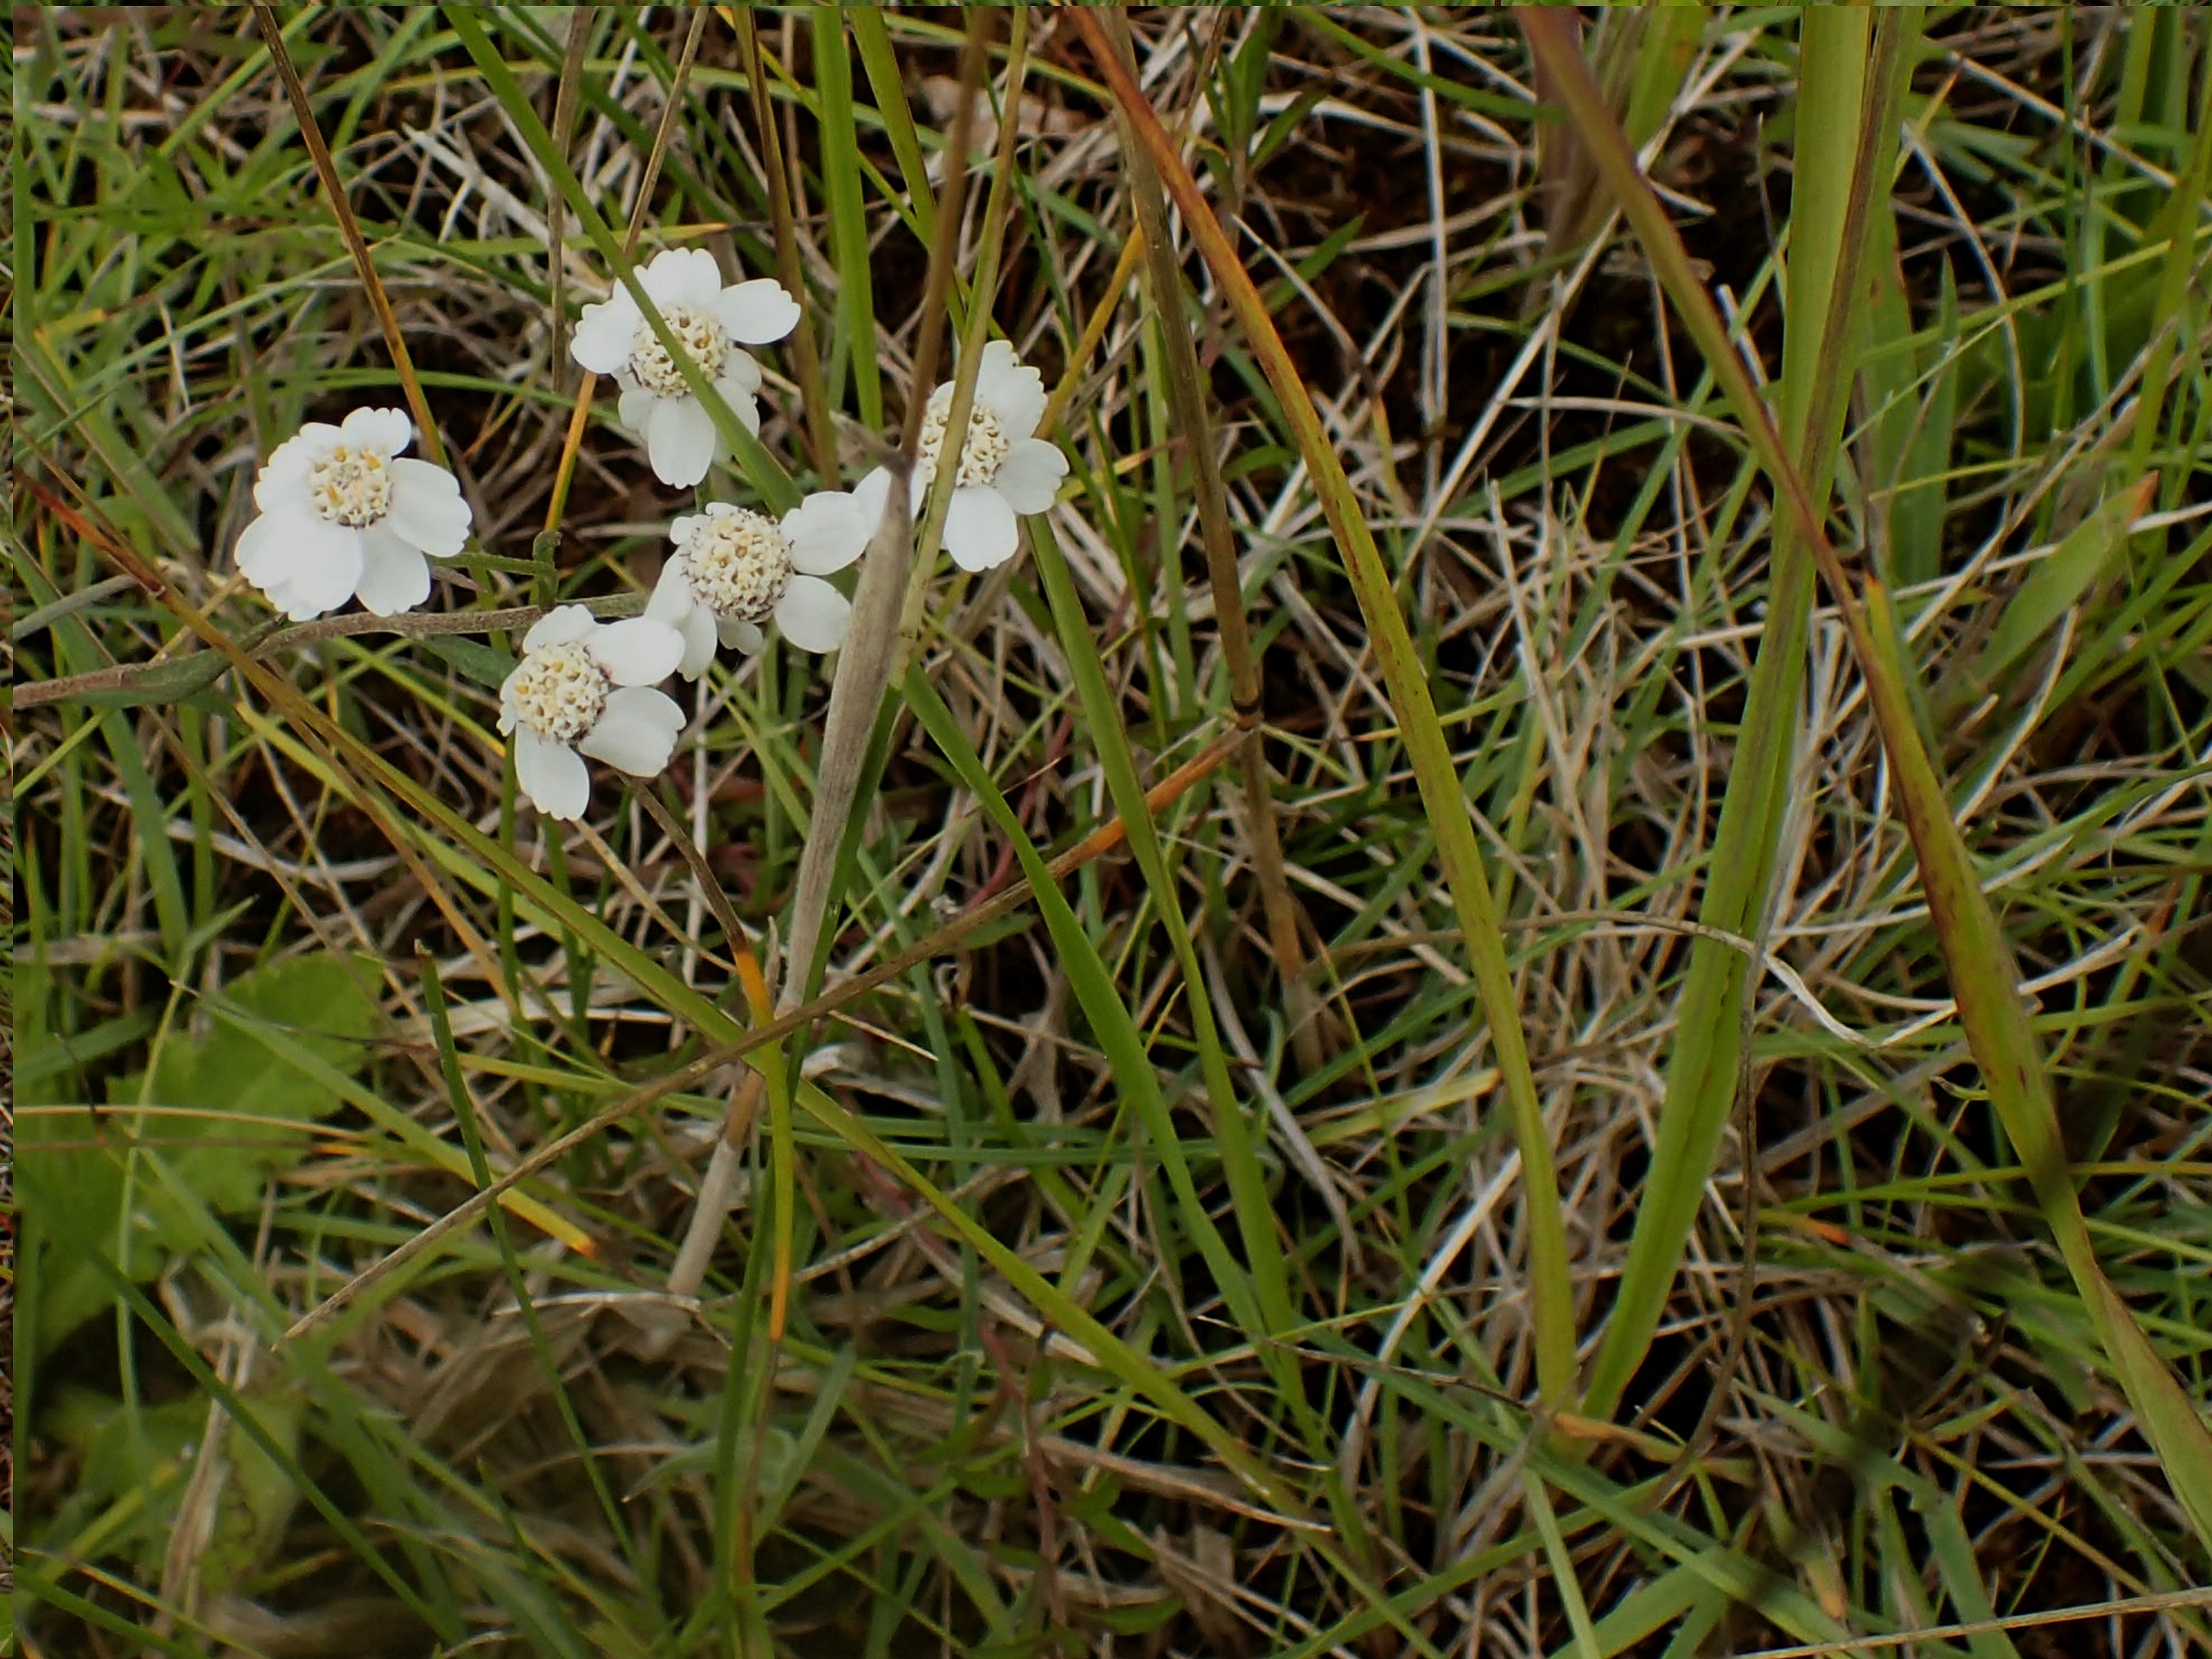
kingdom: Plantae
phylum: Tracheophyta
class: Magnoliopsida
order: Asterales
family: Asteraceae
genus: Achillea
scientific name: Achillea ptarmica
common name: Nyse-røllike
